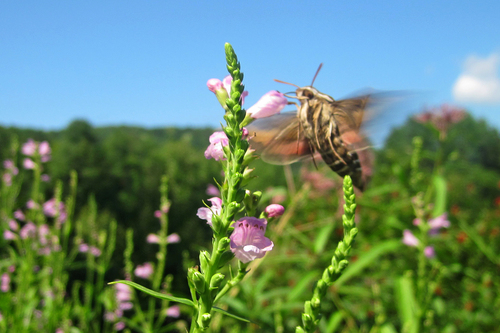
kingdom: Animalia
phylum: Arthropoda
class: Insecta
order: Lepidoptera
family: Sphingidae
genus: Hyles
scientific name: Hyles gallii
